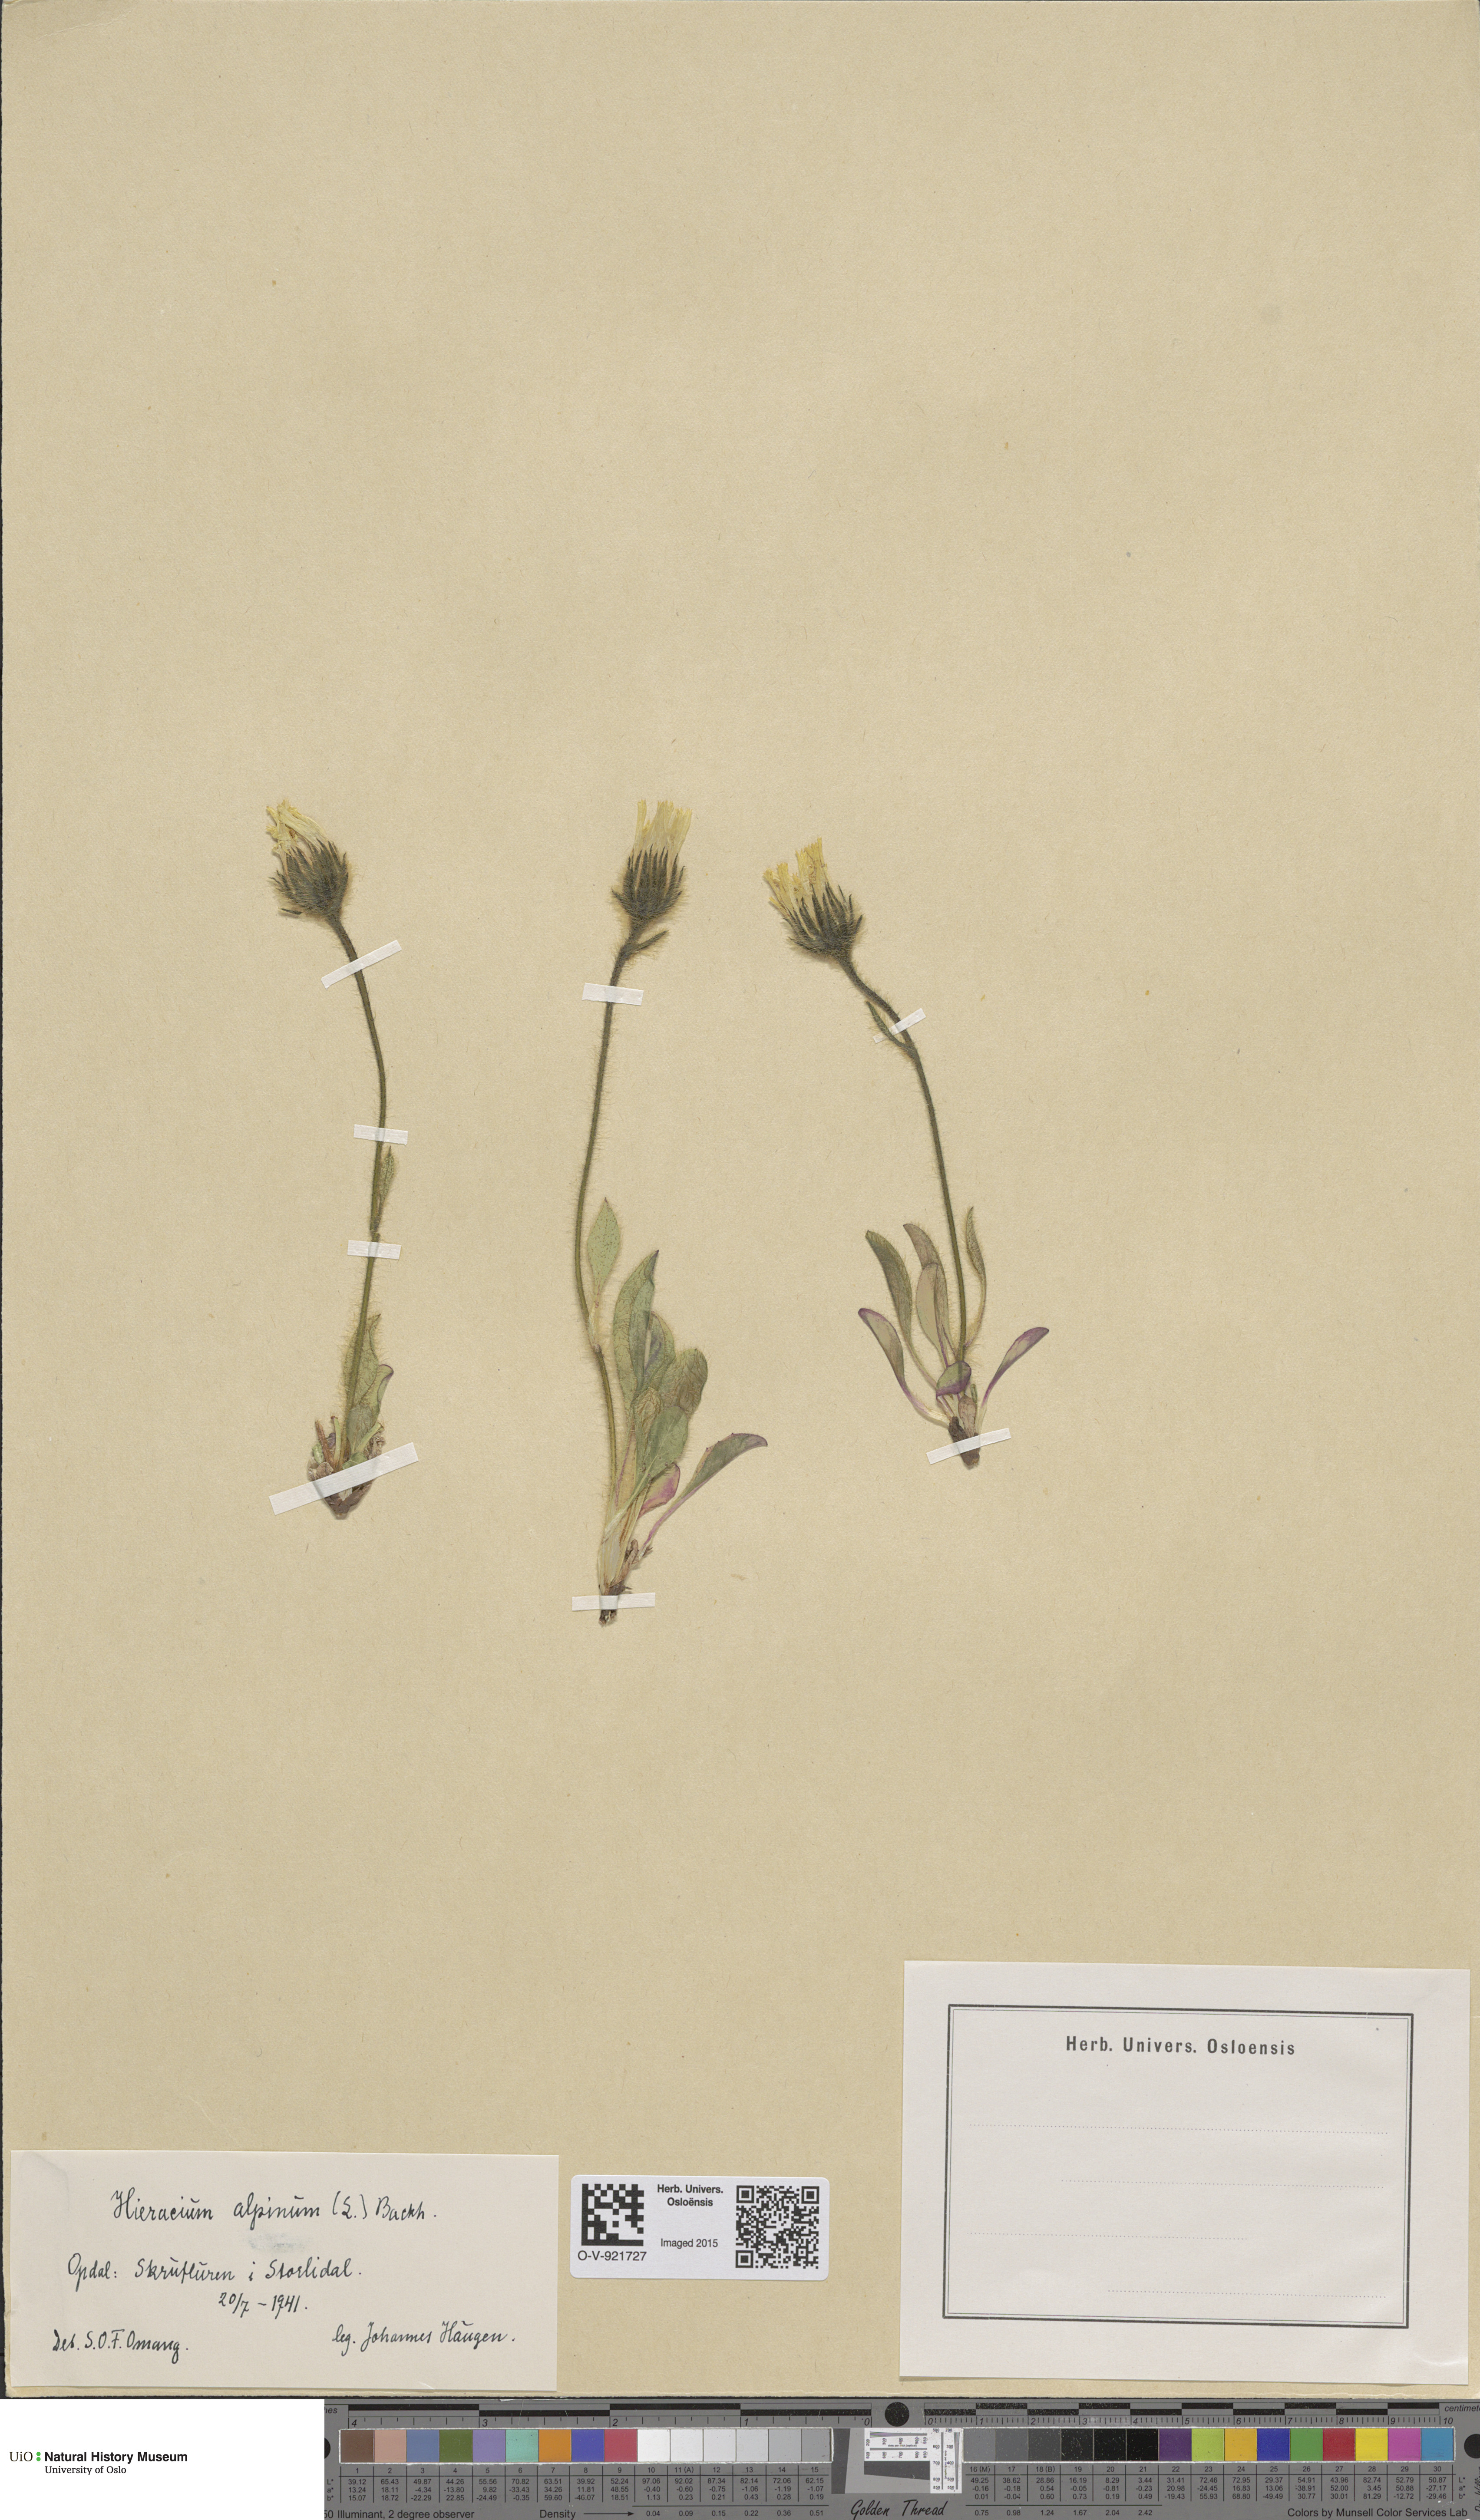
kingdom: Plantae
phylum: Tracheophyta
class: Magnoliopsida
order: Asterales
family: Asteraceae
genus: Hieracium
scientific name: Hieracium alpinum
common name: Alpine hawkweed
